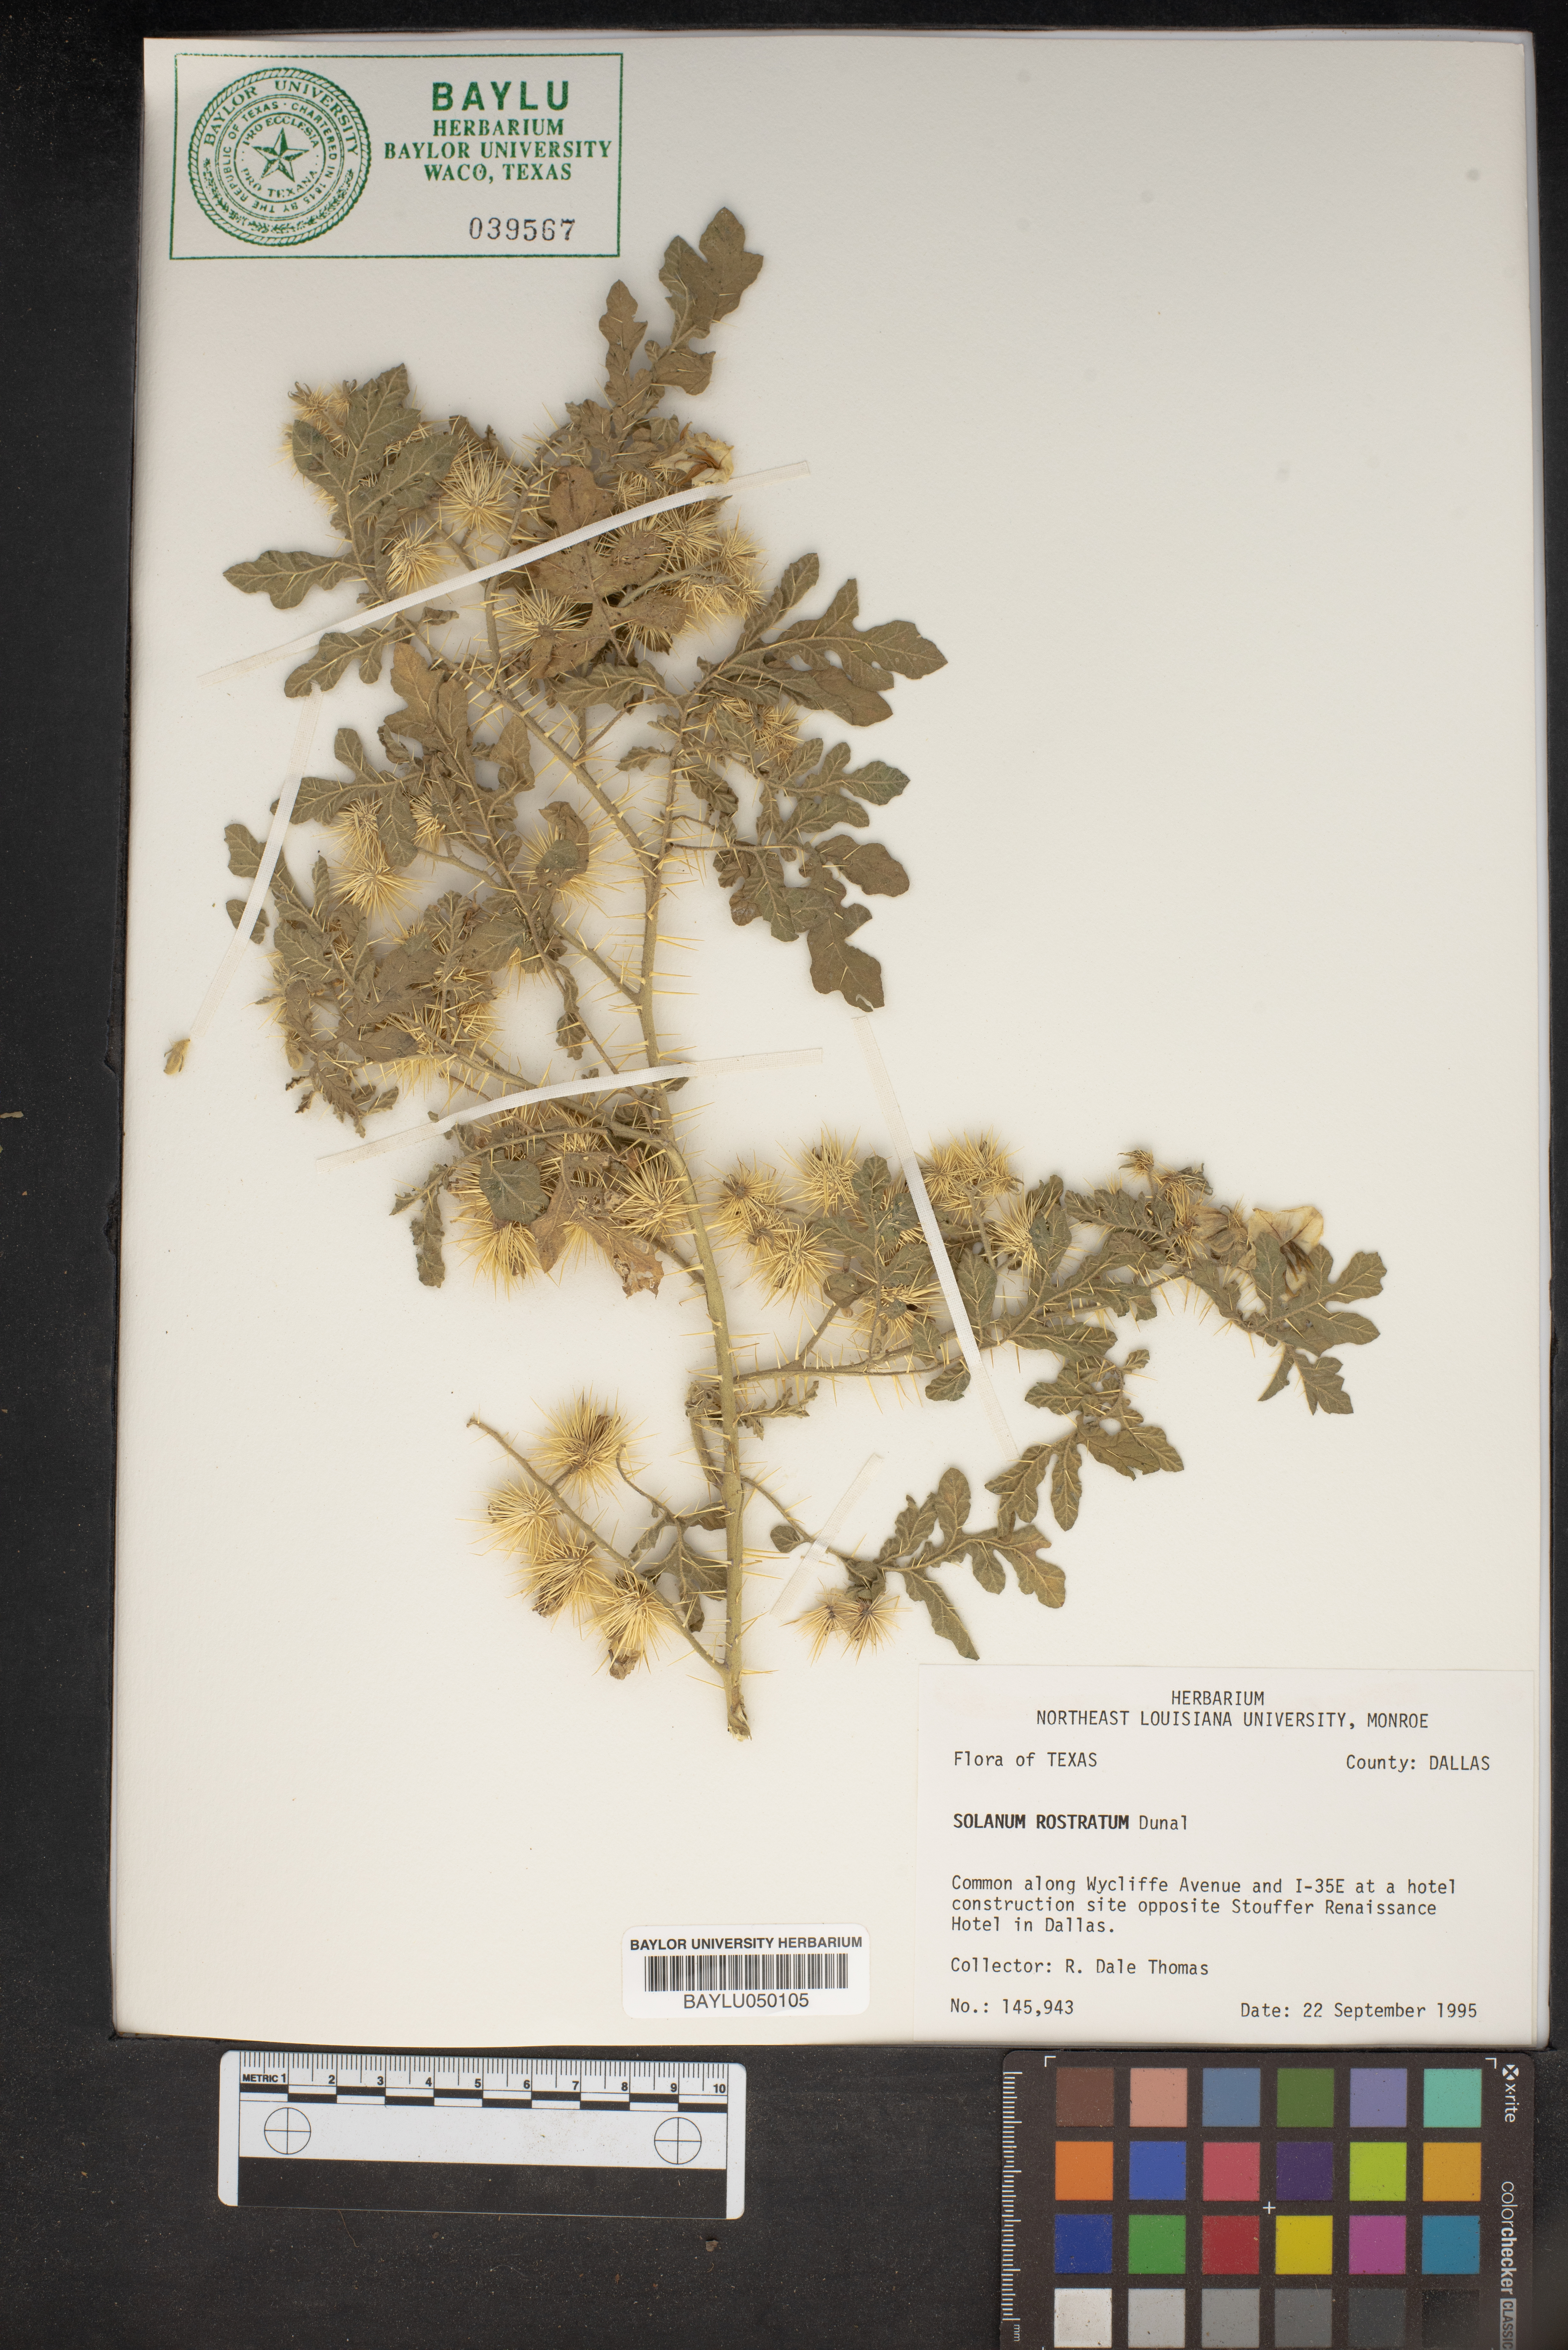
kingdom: Plantae
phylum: Tracheophyta
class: Magnoliopsida
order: Solanales
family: Solanaceae
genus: Solanum
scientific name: Solanum angustifolium
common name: Buffalobur nightshade
